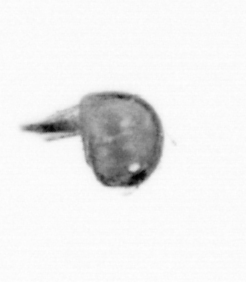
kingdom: Animalia
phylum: Arthropoda
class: Maxillopoda
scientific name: Maxillopoda
